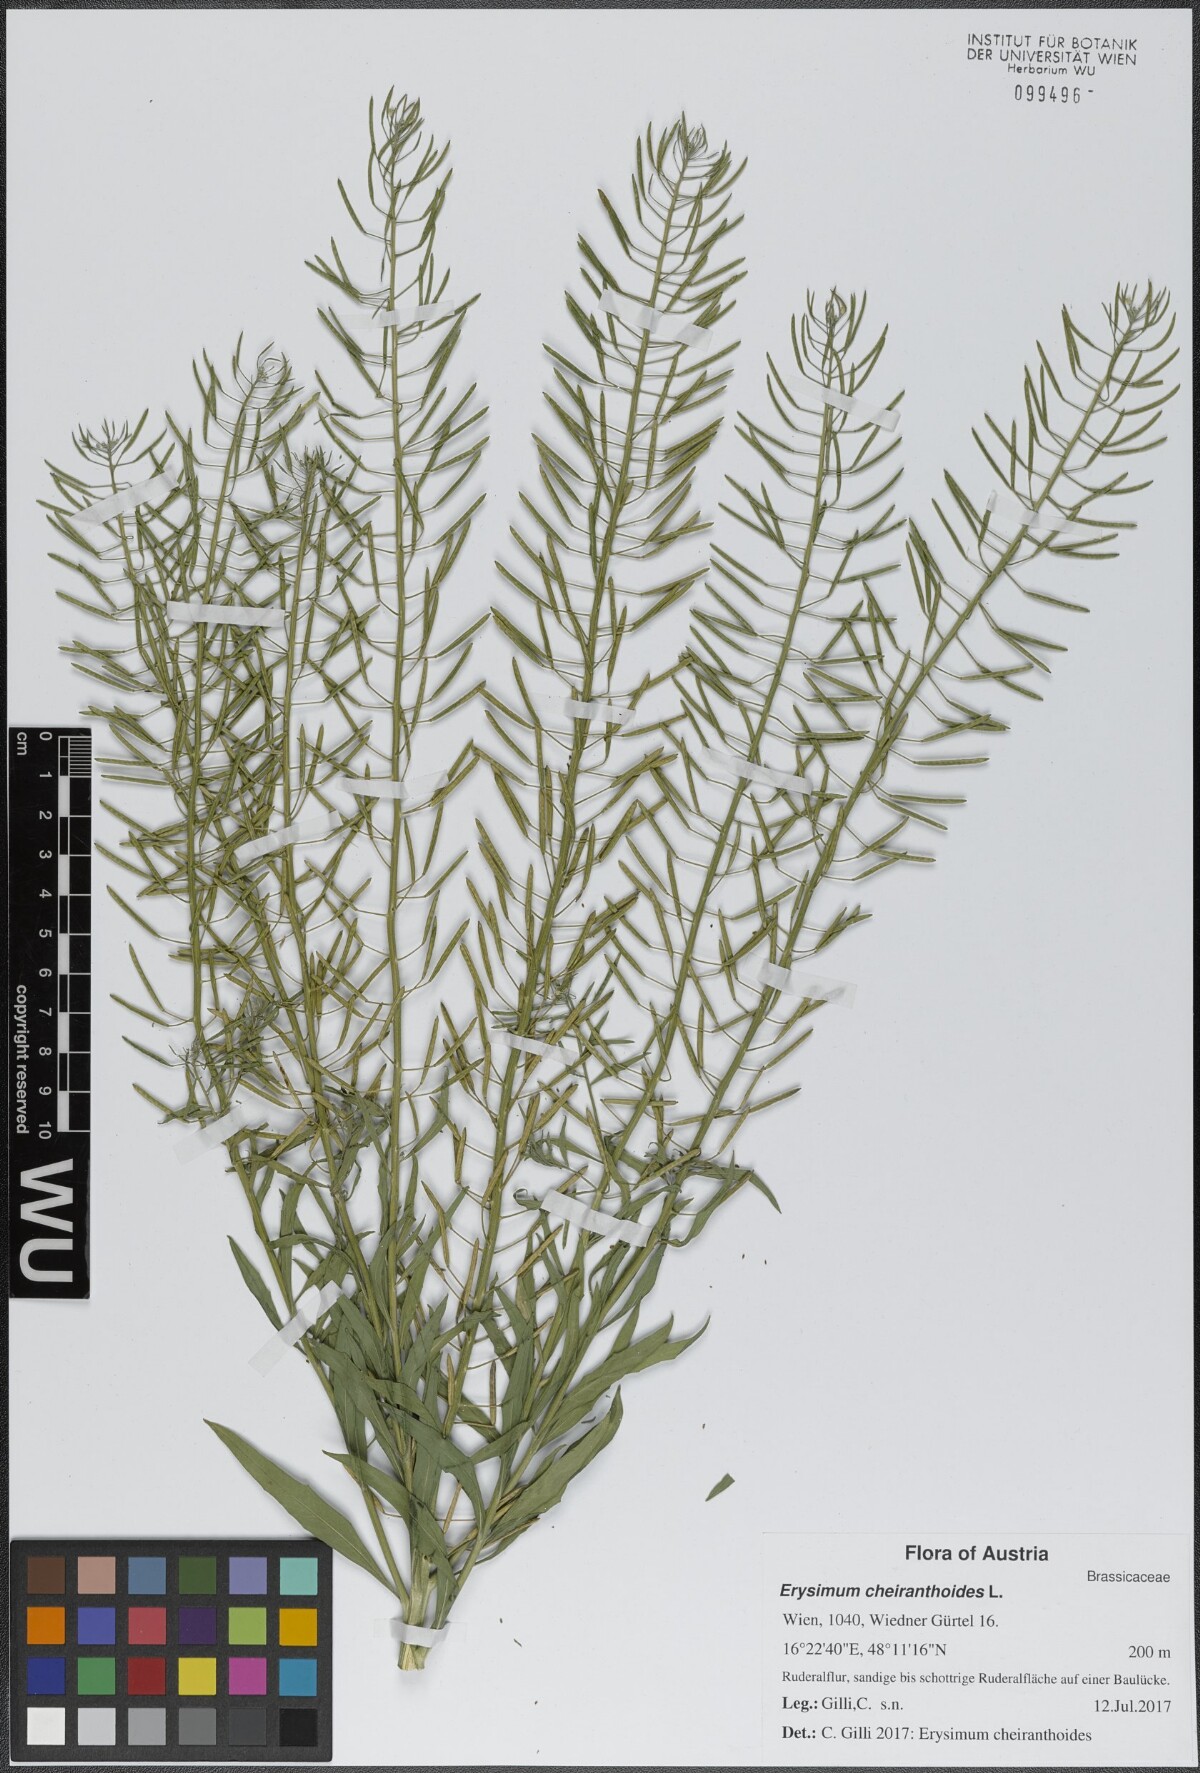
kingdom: Plantae
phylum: Tracheophyta
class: Magnoliopsida
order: Brassicales
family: Brassicaceae
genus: Erysimum
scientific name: Erysimum cheiranthoides
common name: Treacle mustard
